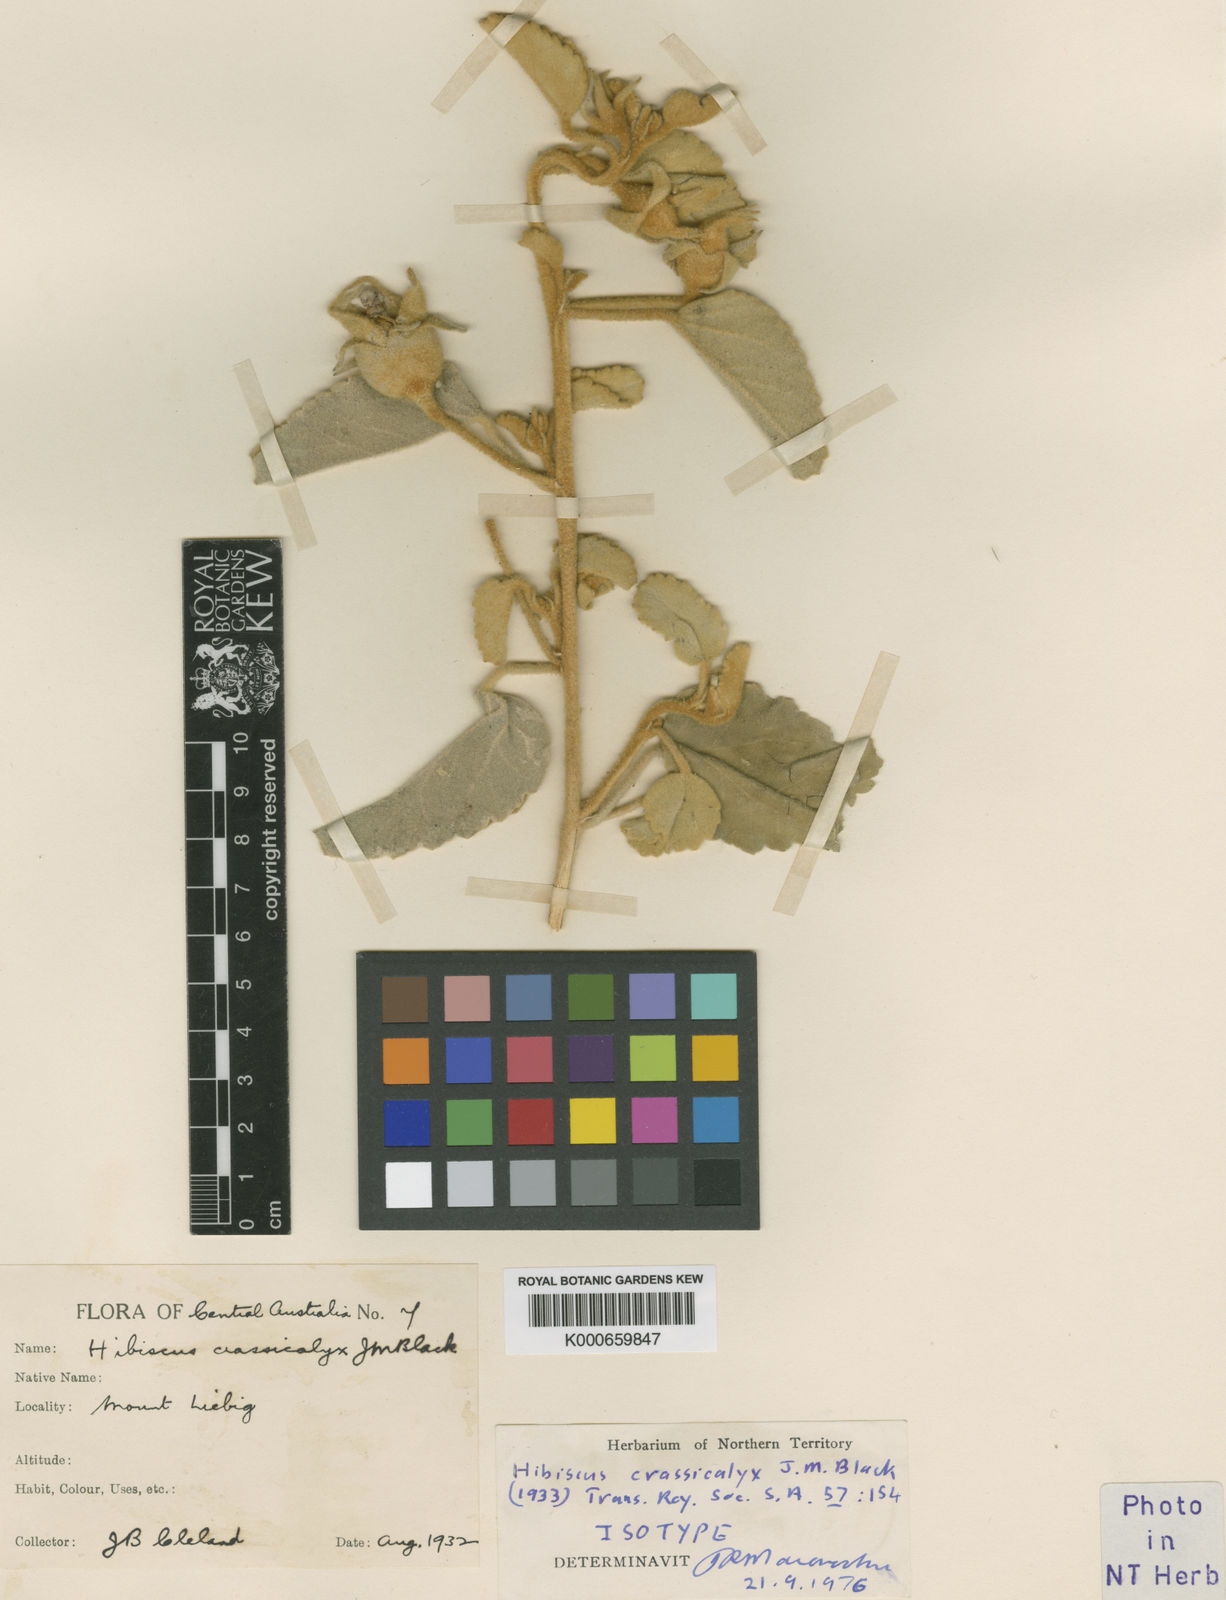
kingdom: Plantae
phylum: Tracheophyta
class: Magnoliopsida
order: Malvales
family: Malvaceae
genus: Hibiscus
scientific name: Hibiscus crassicalyx
